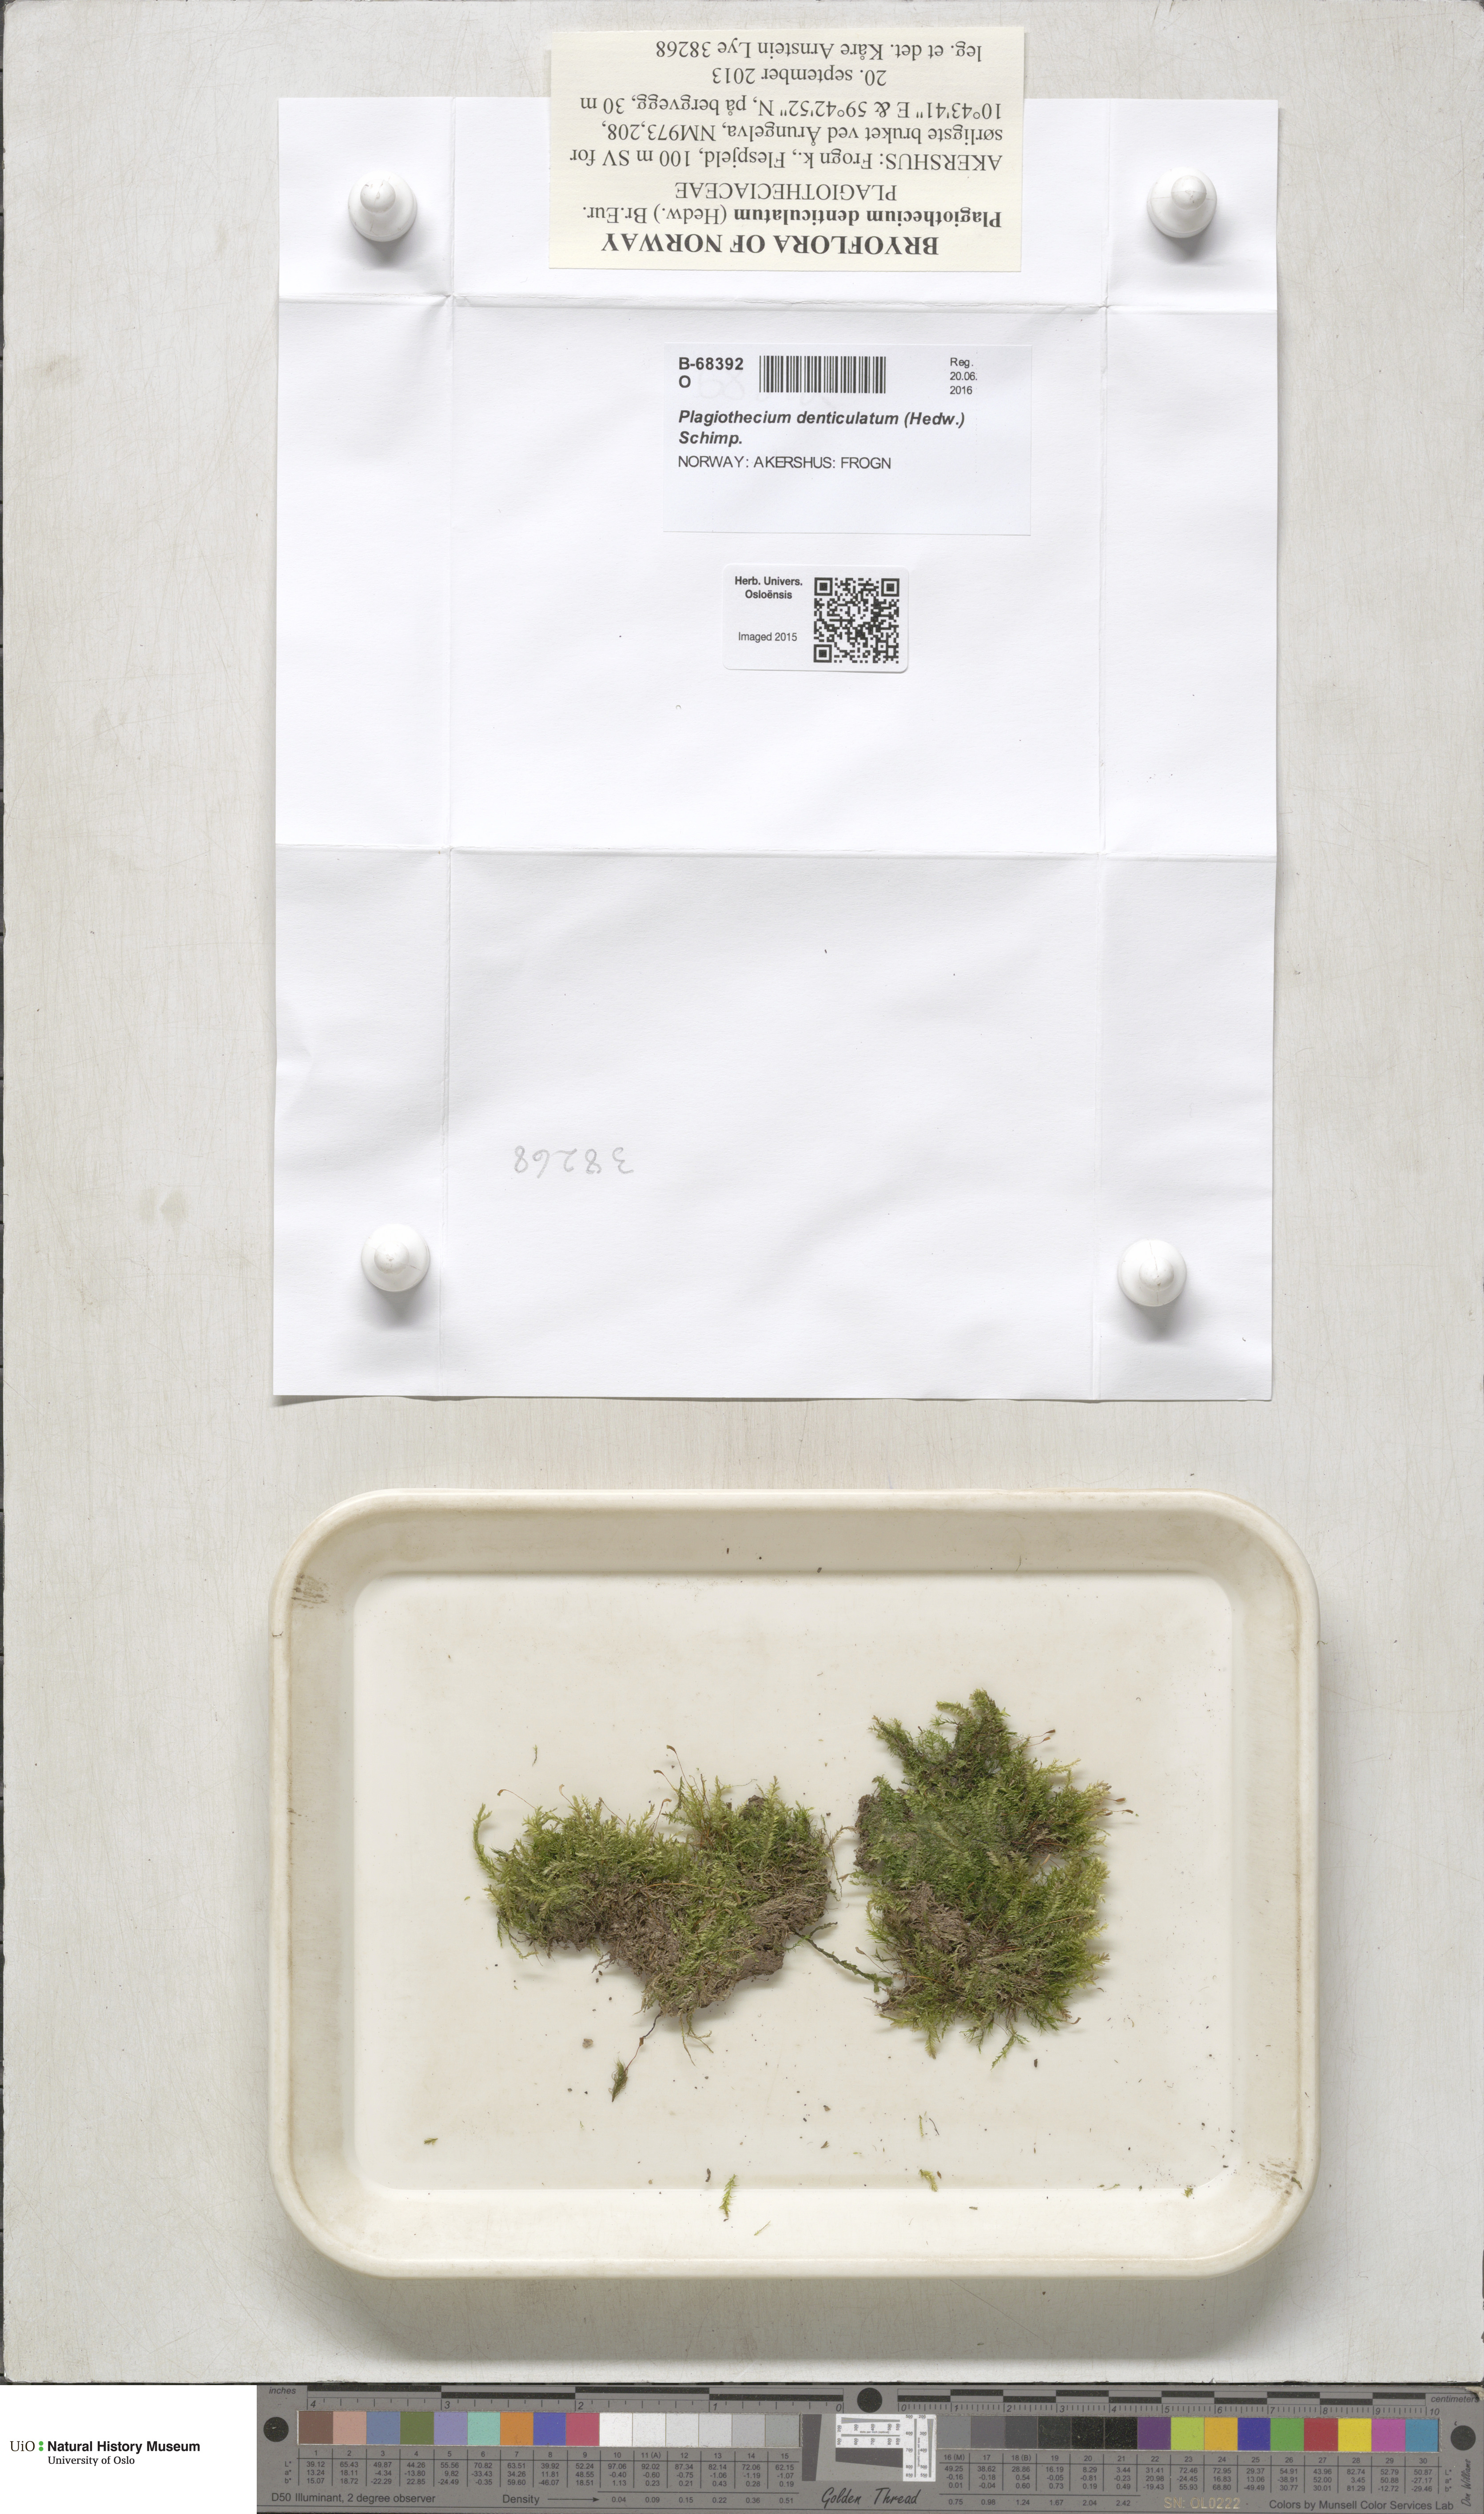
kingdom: Plantae
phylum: Bryophyta
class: Bryopsida
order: Hypnales
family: Plagiotheciaceae
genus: Plagiothecium
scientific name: Plagiothecium denticulatum
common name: Dented silk moss
